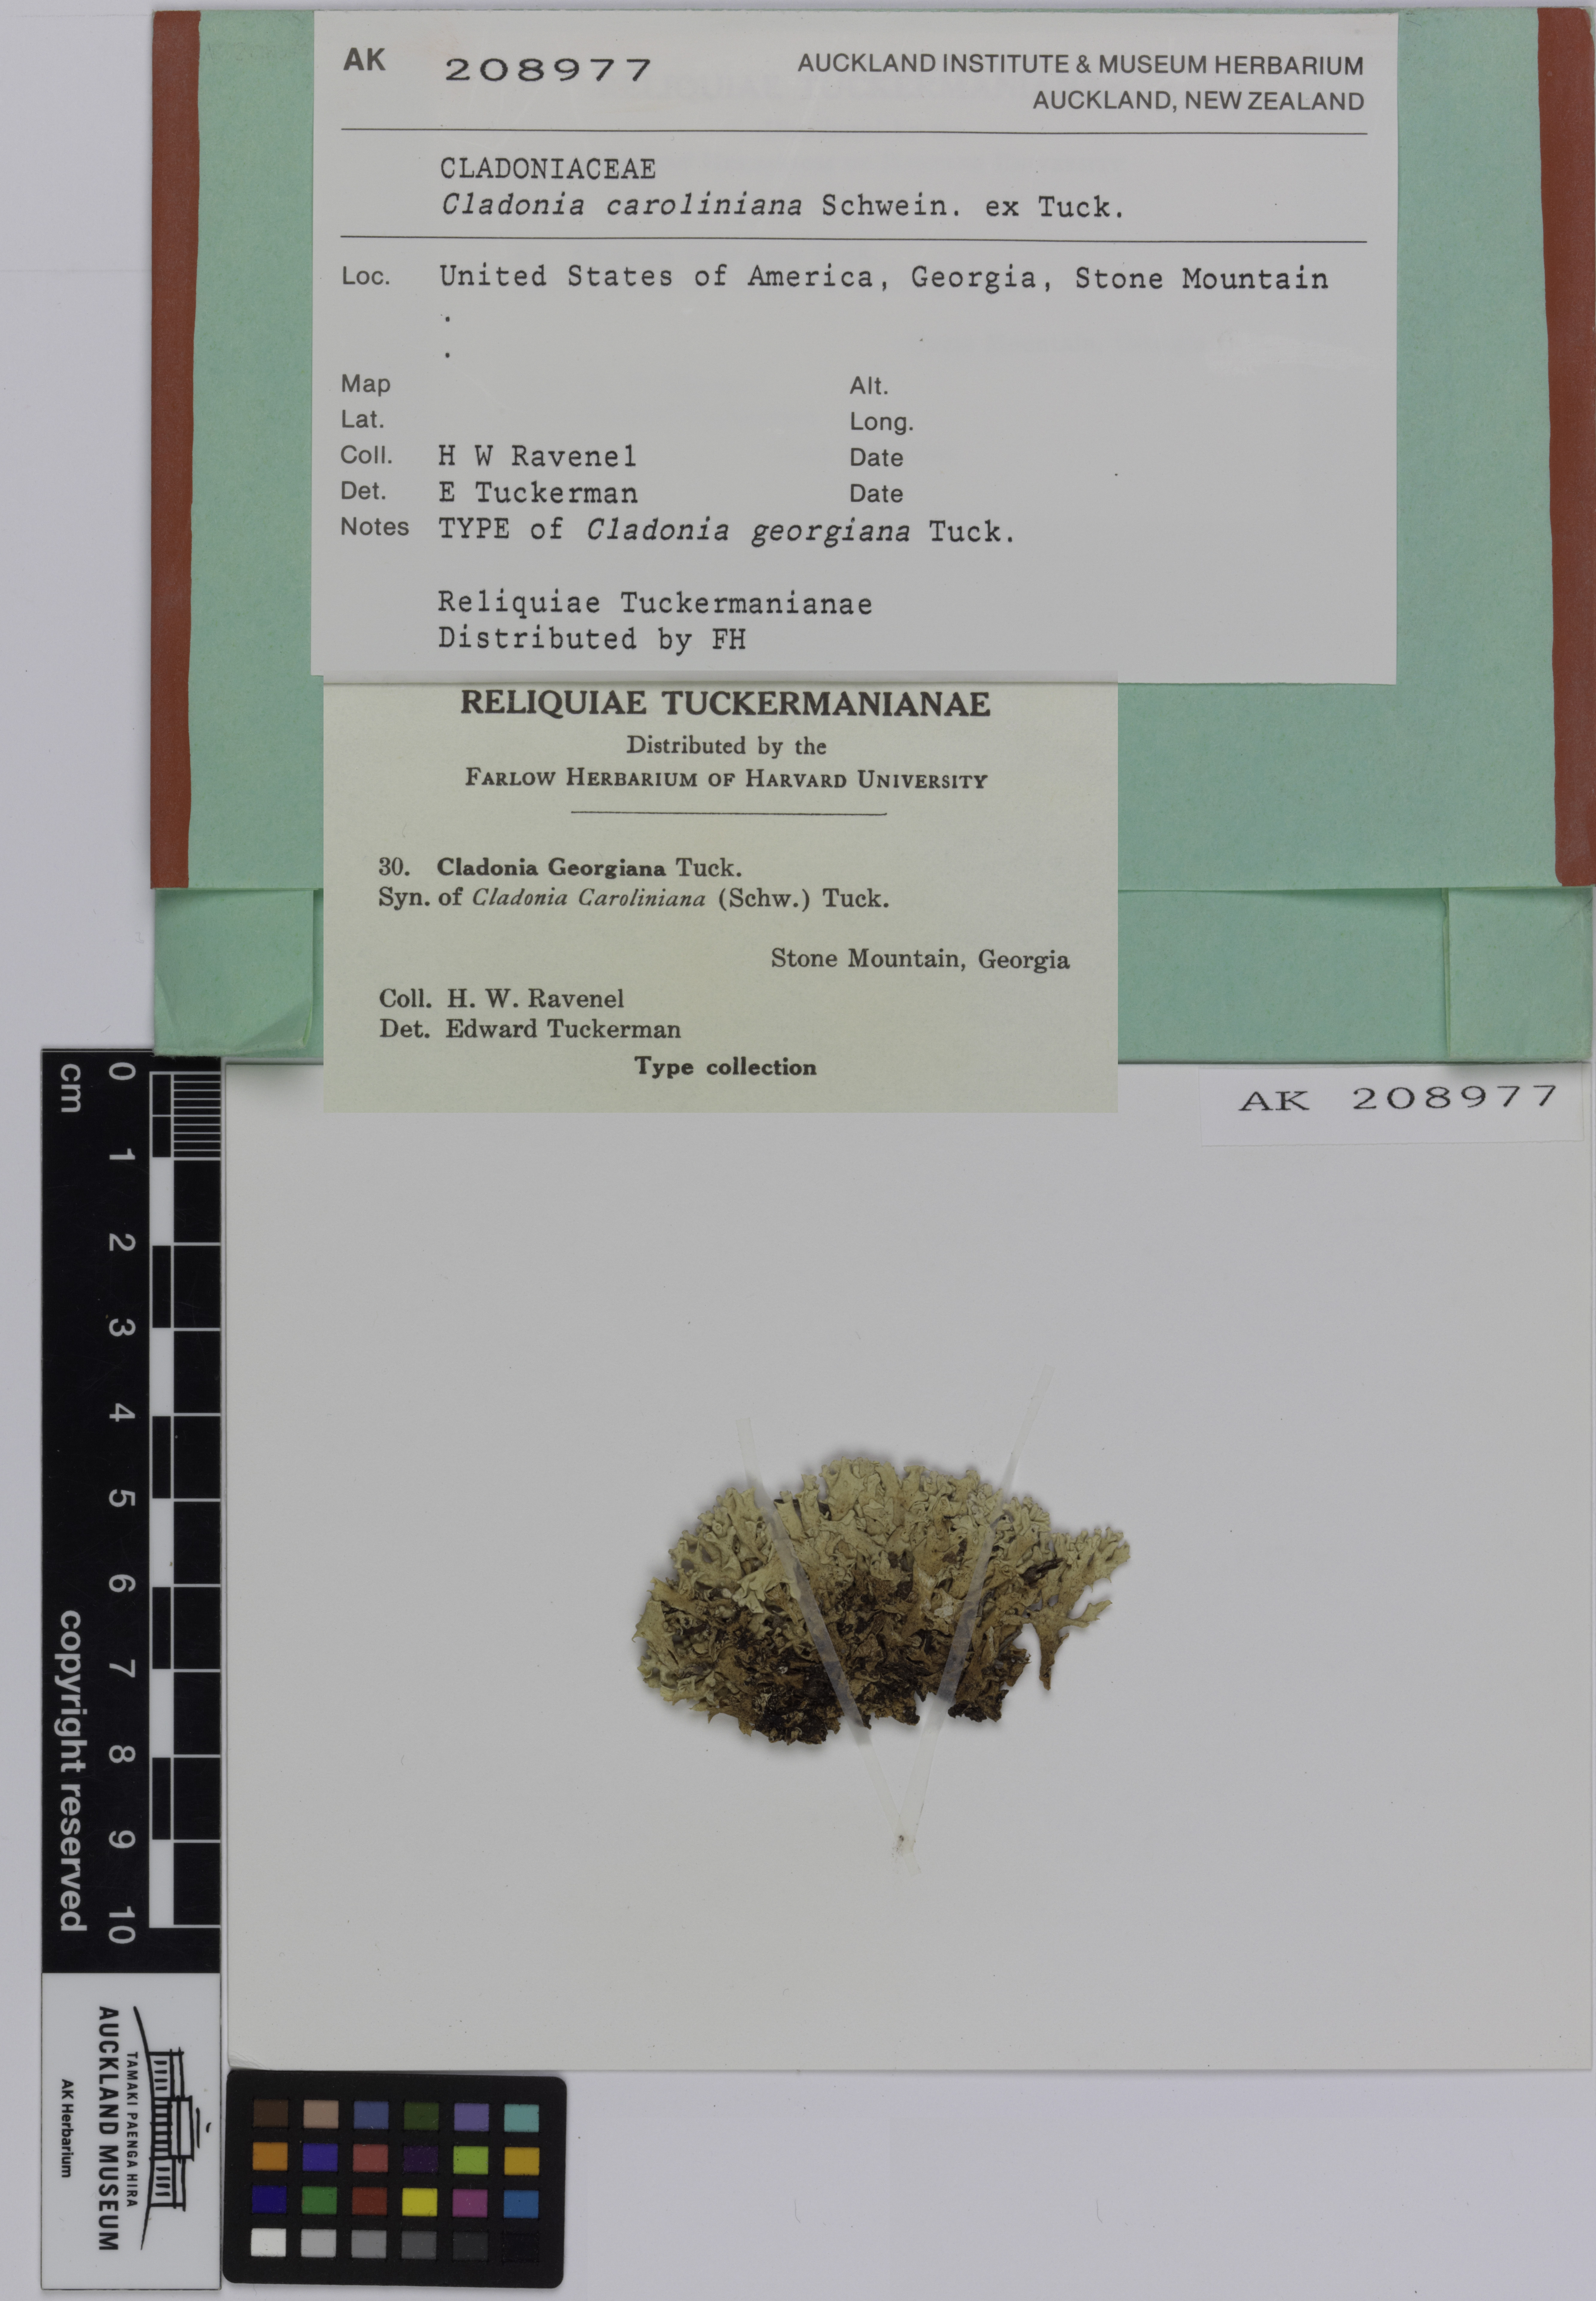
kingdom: Fungi
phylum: Ascomycota
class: Lecanoromycetes
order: Lecanorales
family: Cladoniaceae
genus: Cladonia
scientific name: Cladonia caroliniana
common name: Granite thorn
